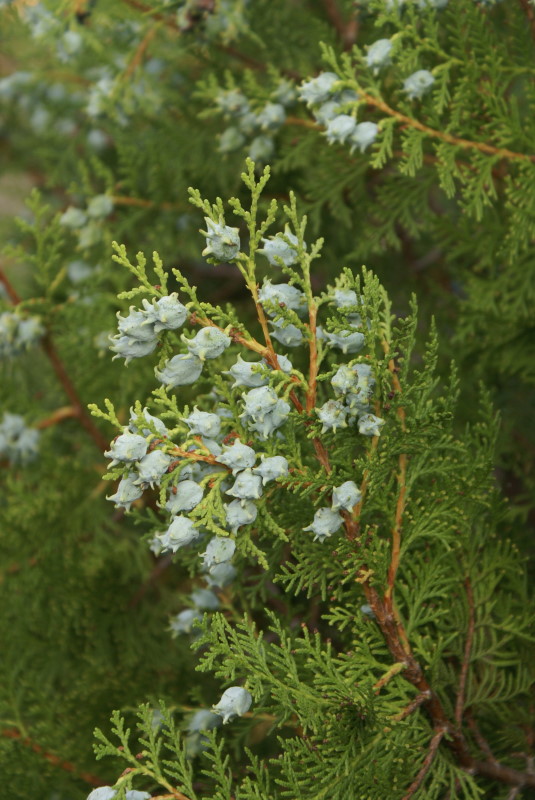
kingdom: Plantae
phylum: Tracheophyta
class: Pinopsida
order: Pinales
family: Cupressaceae
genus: Platycladus
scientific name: Platycladus orientalis
